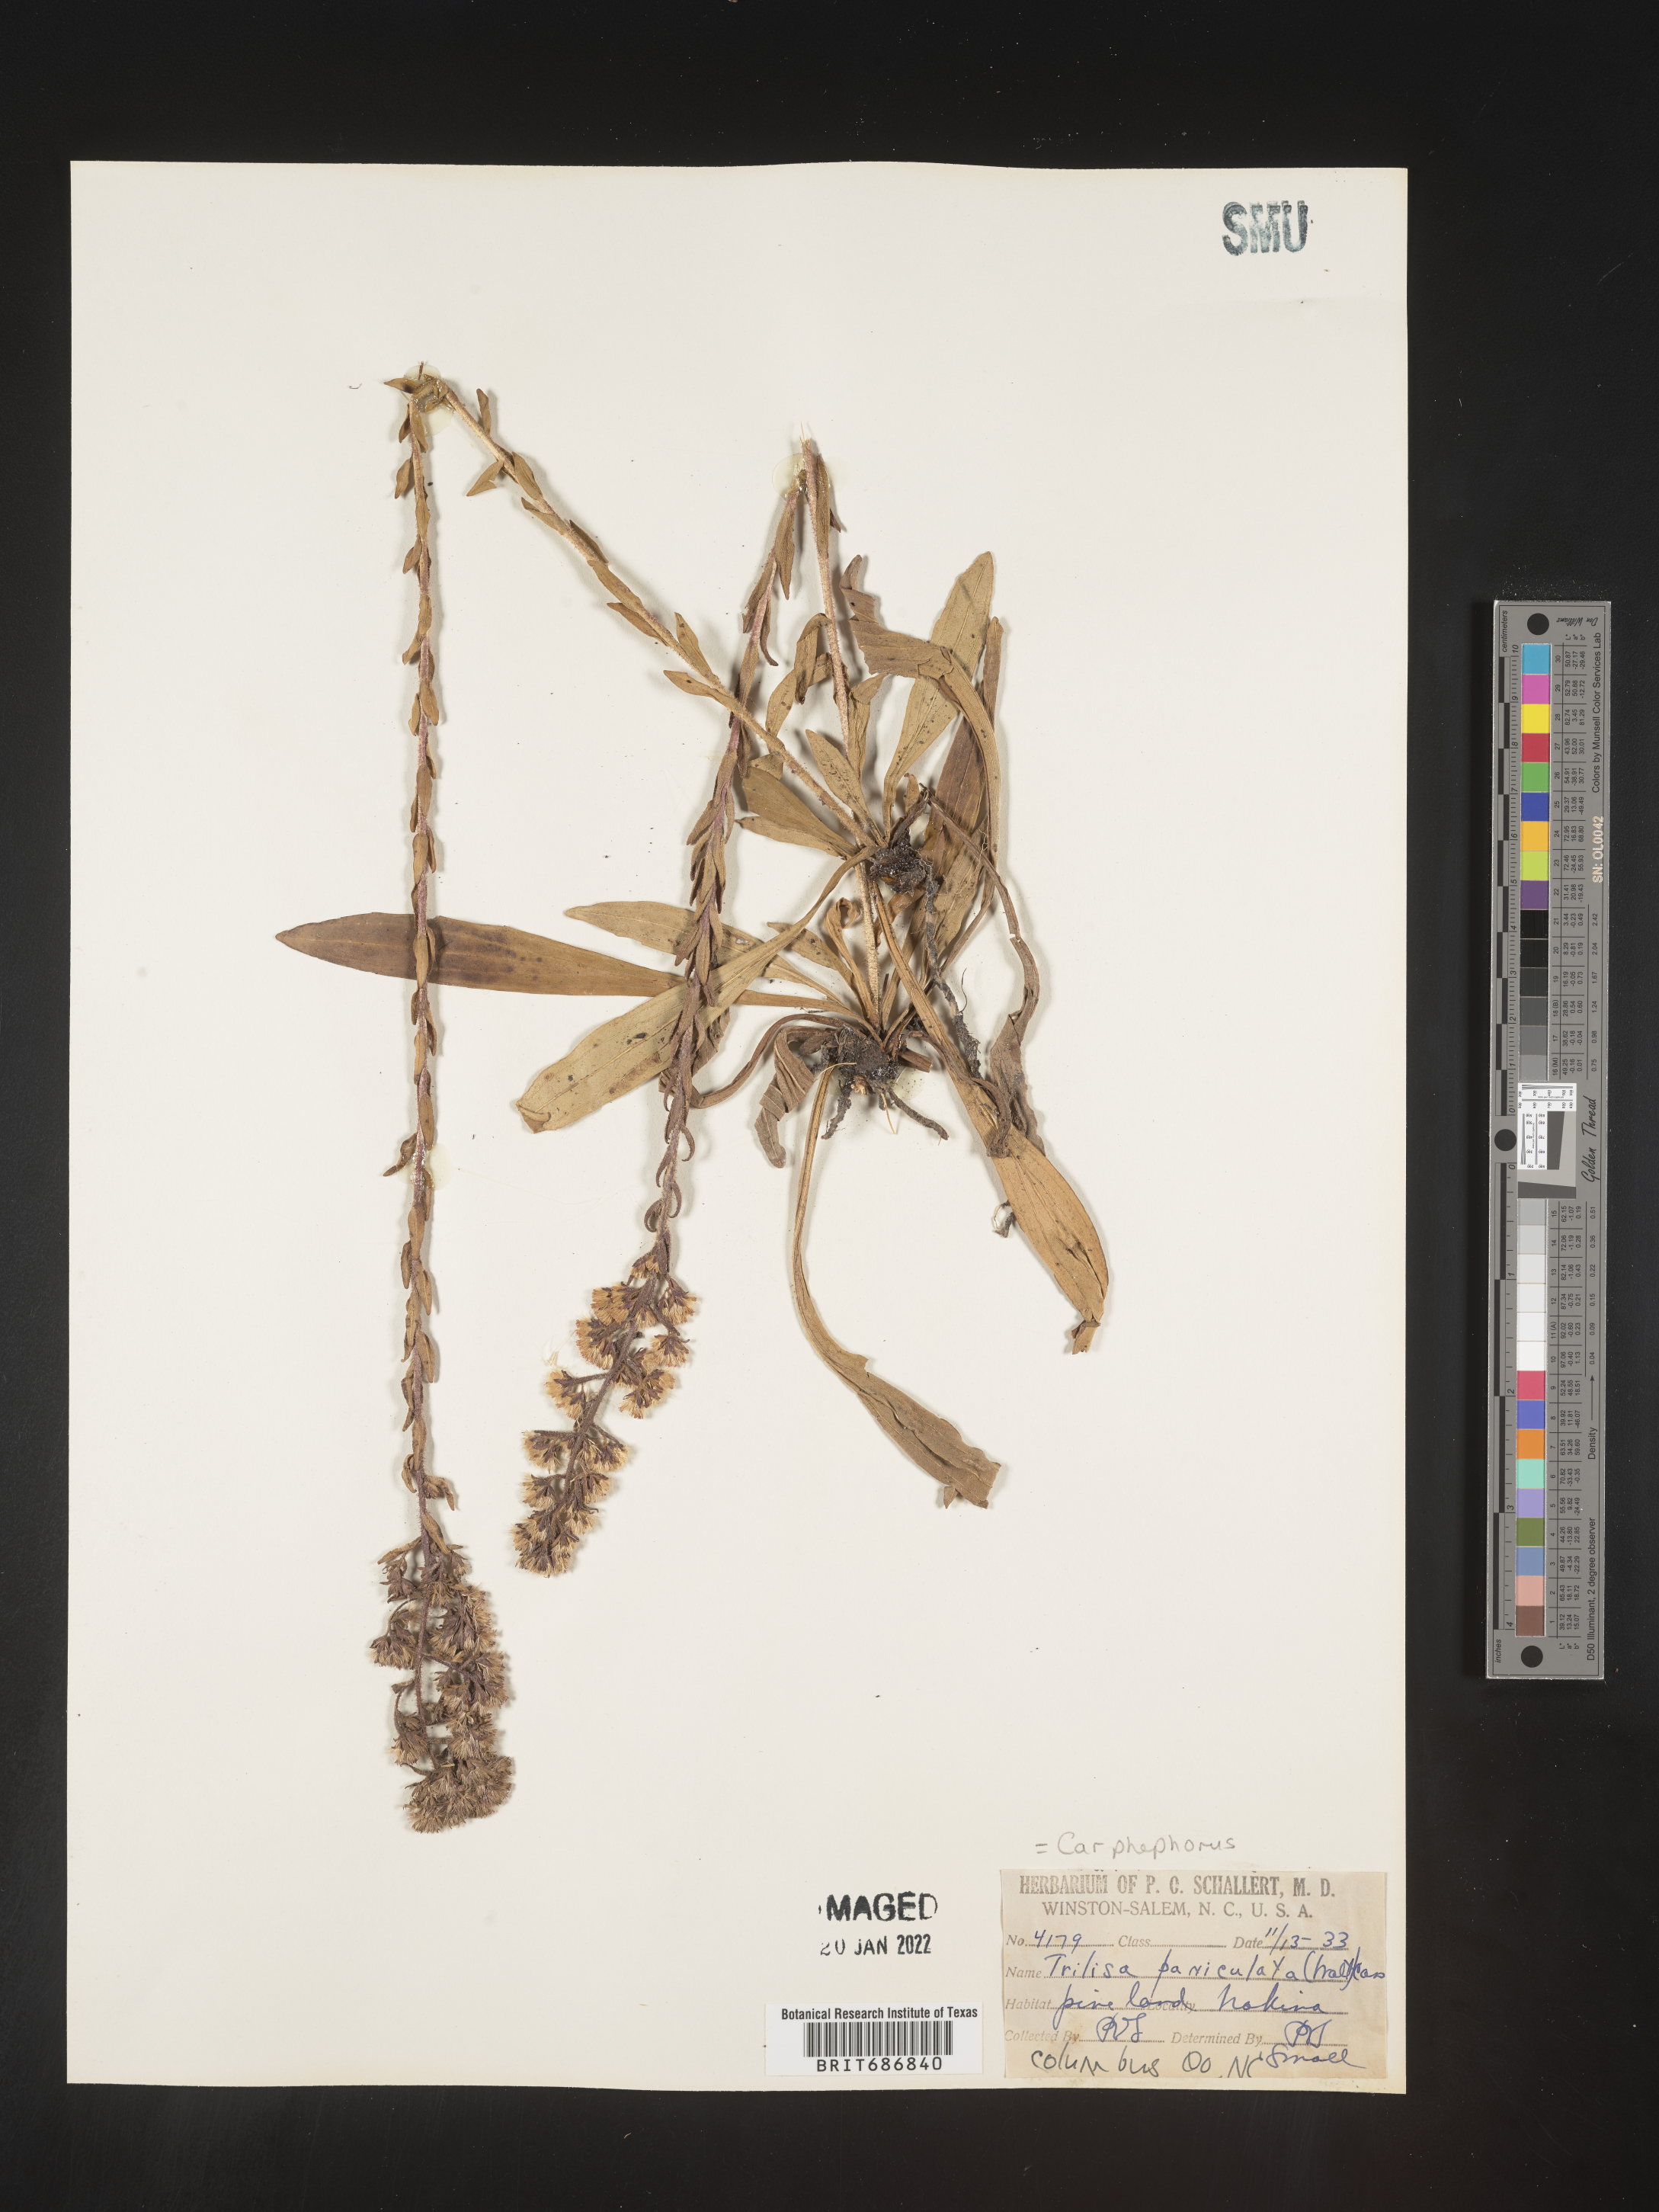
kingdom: Plantae
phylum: Tracheophyta
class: Magnoliopsida
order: Asterales
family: Asteraceae
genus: Carphephorus
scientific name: Carphephorus paniculatus
